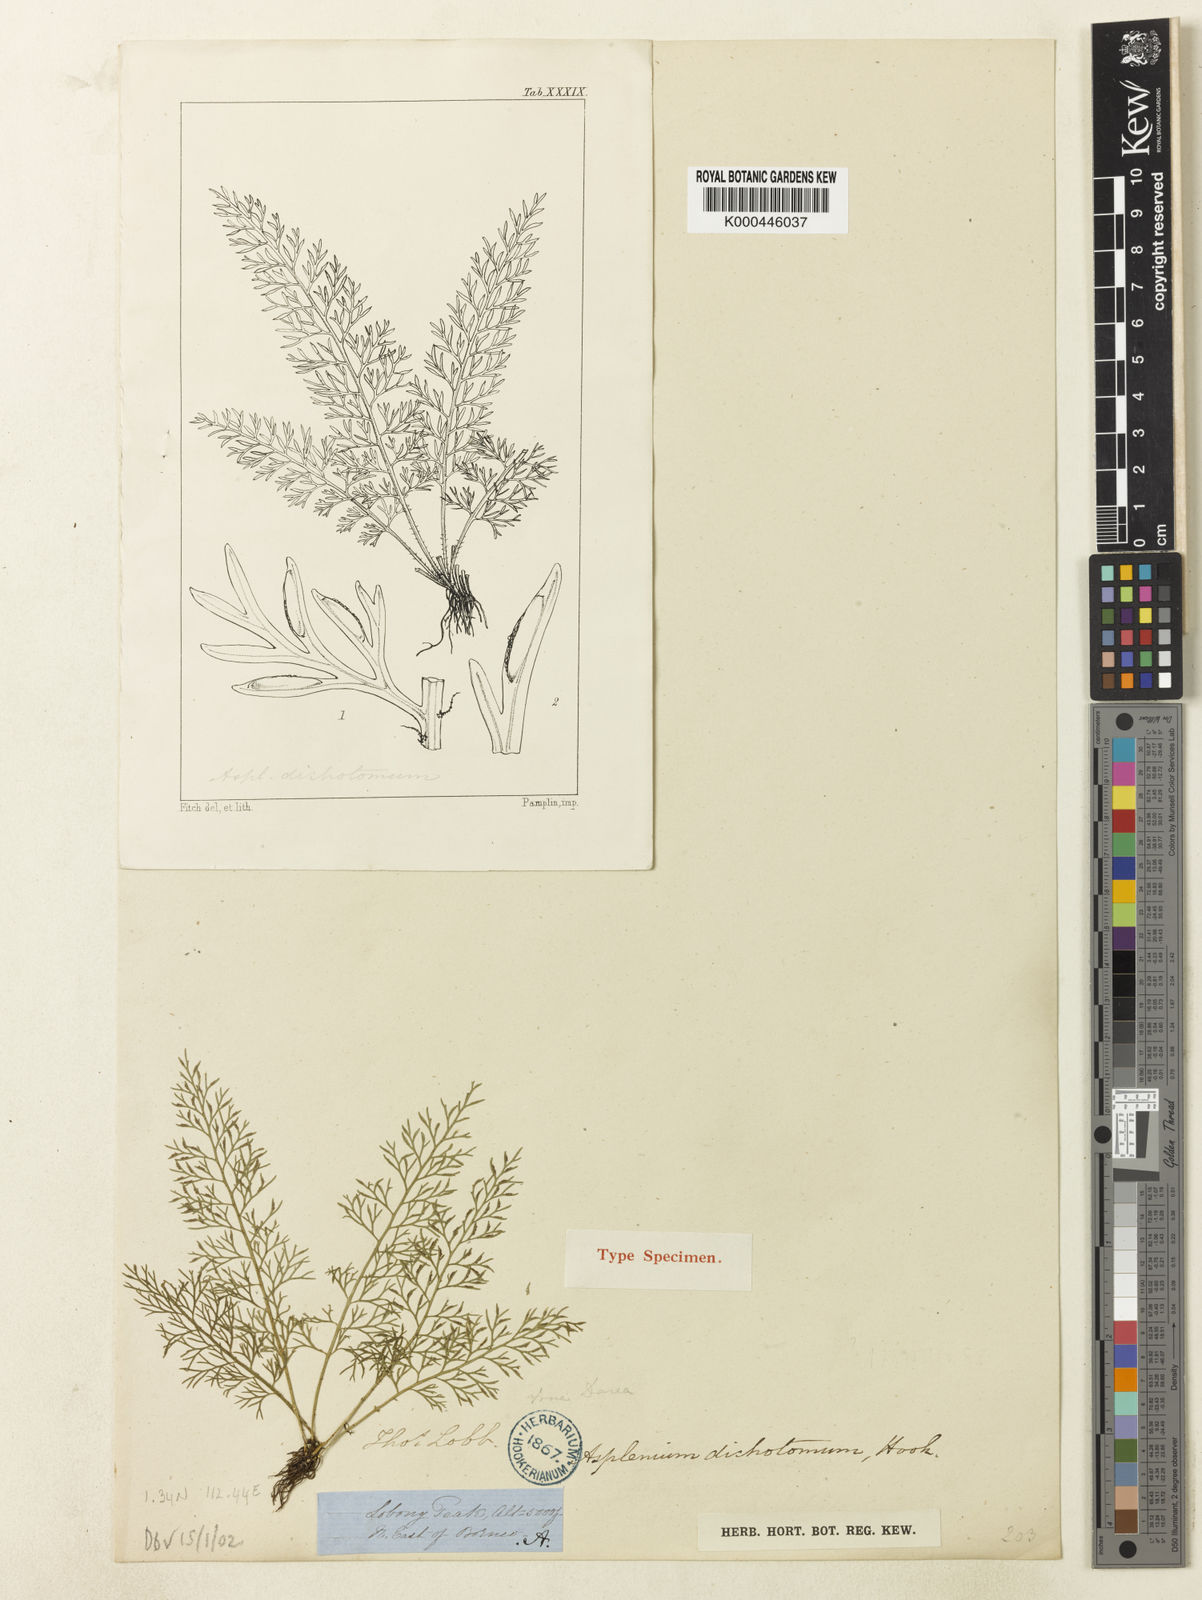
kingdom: Plantae
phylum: Tracheophyta
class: Polypodiopsida
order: Polypodiales
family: Aspleniaceae
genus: Asplenium
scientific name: Asplenium dichotomum
